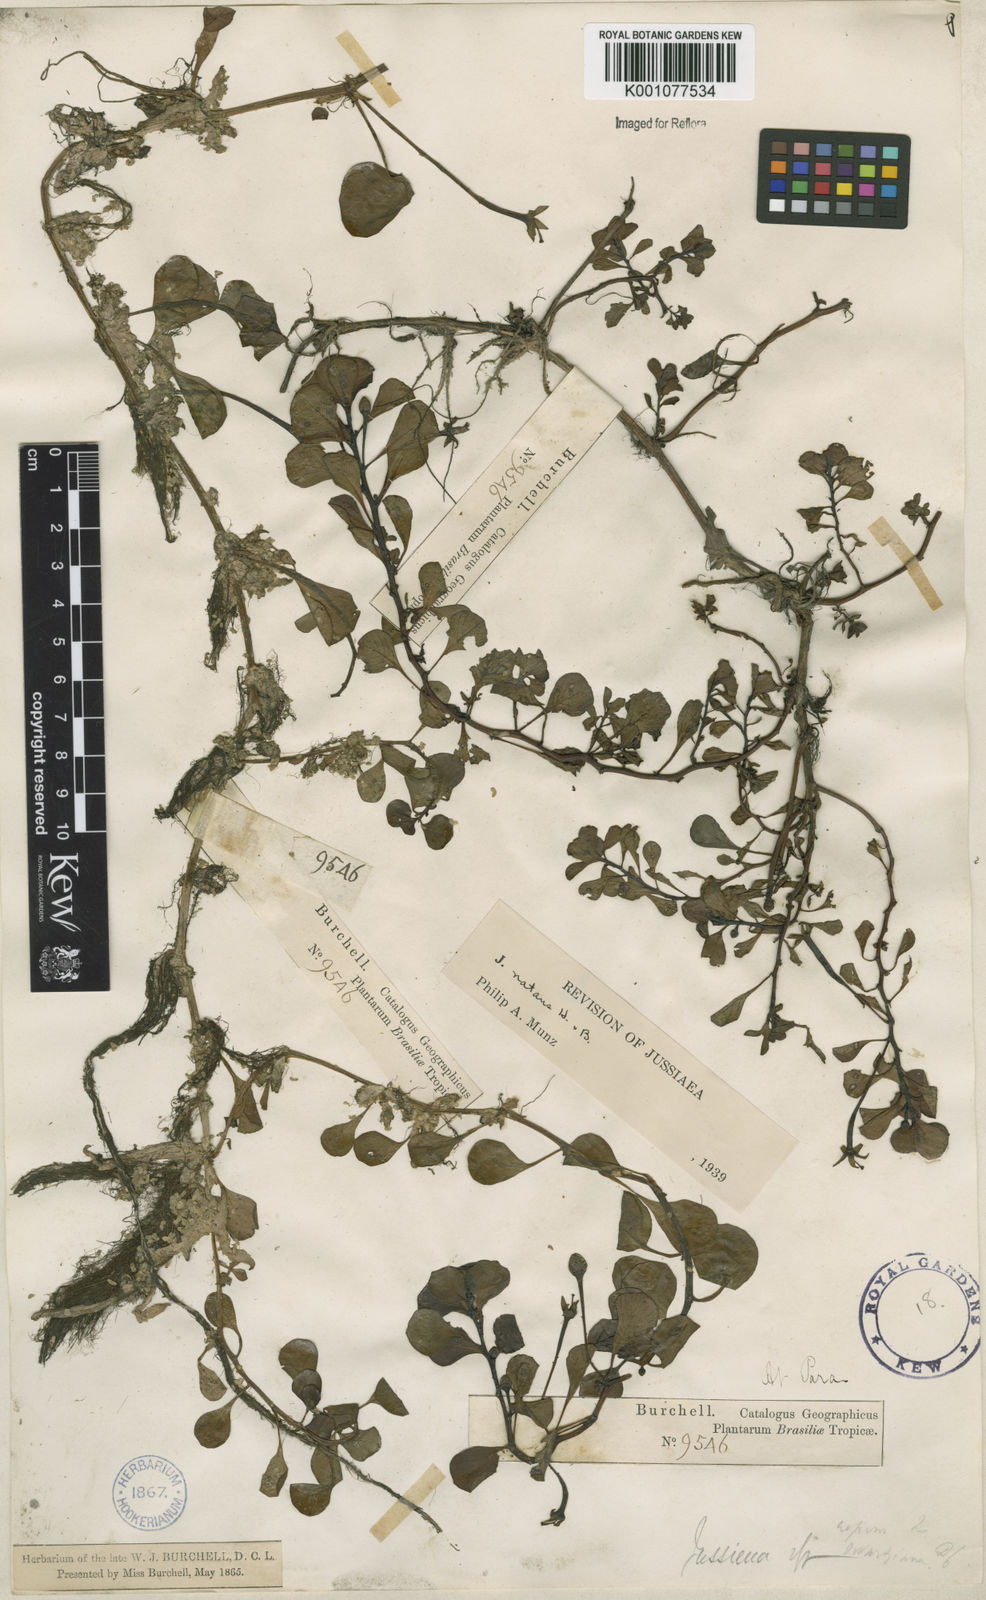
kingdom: Plantae
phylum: Tracheophyta
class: Magnoliopsida
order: Myrtales
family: Onagraceae
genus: Ludwigia
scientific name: Ludwigia helminthorrhiza
